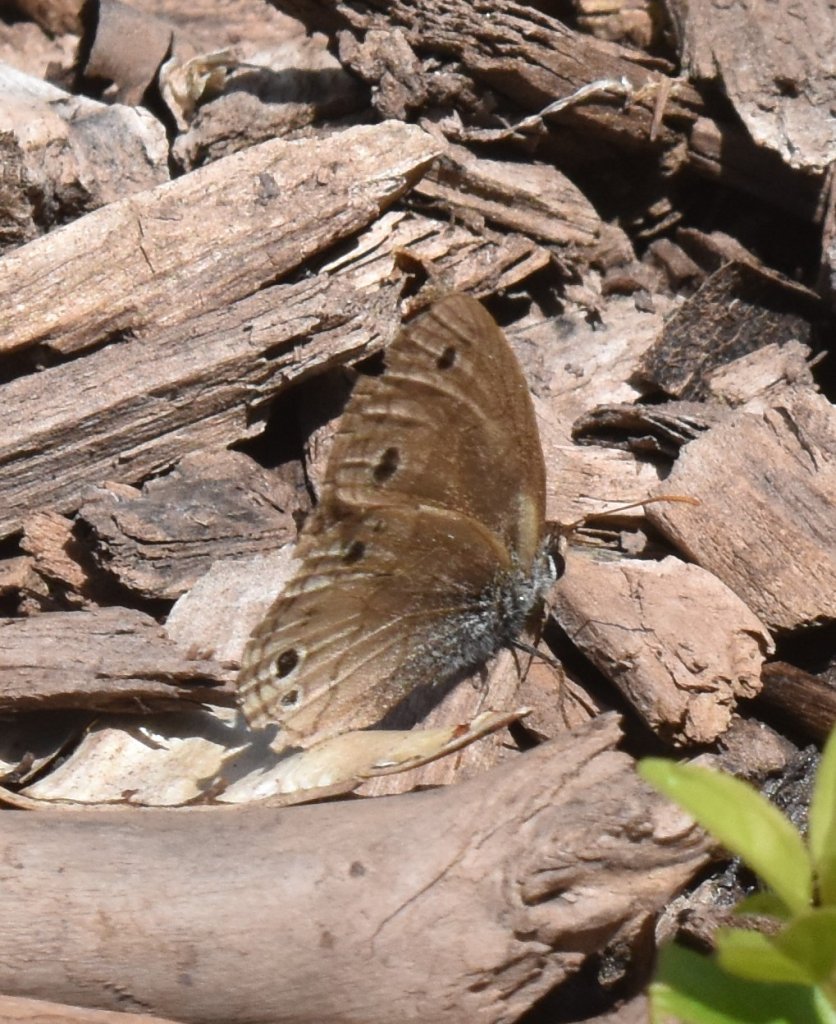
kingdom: Animalia
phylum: Arthropoda
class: Insecta
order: Lepidoptera
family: Nymphalidae
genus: Euptychia
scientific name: Euptychia cymela
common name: Little Wood Satyr
